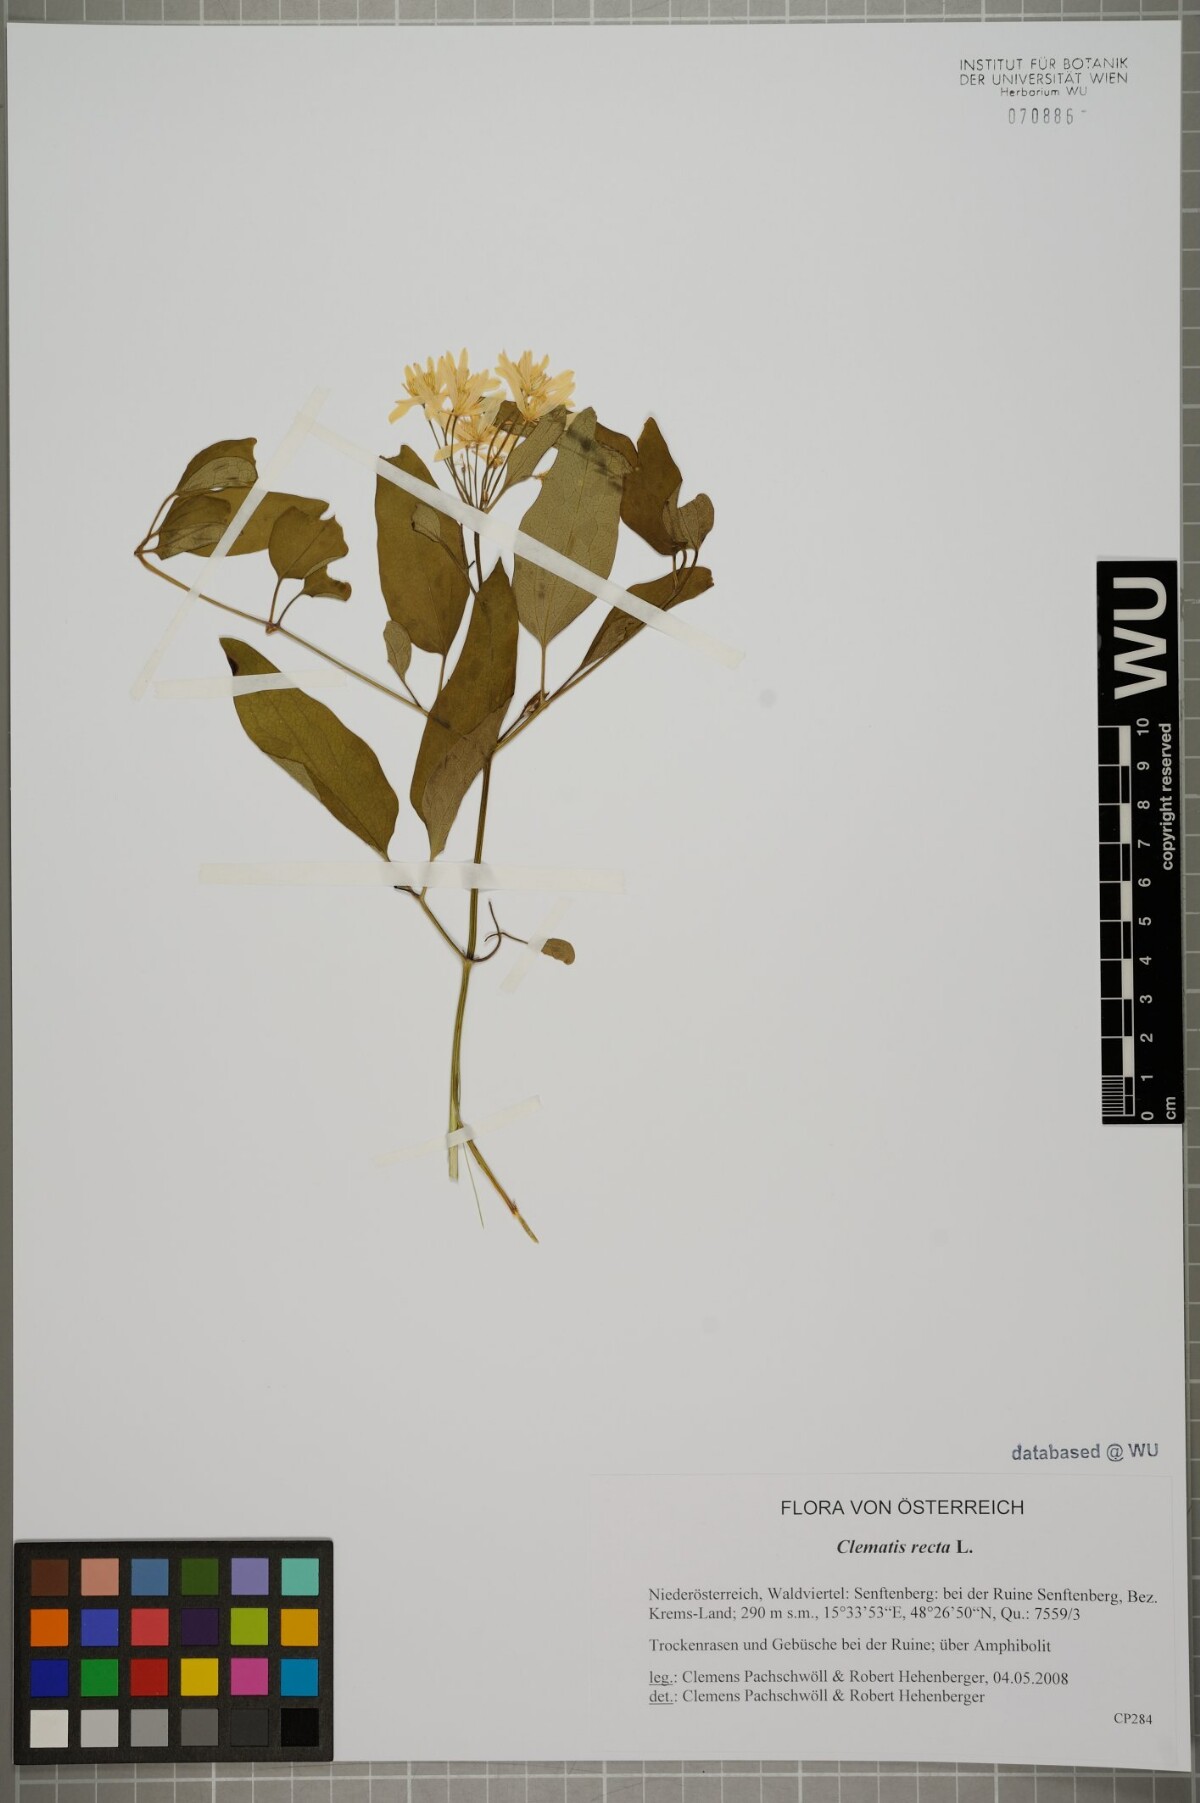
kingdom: Plantae
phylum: Tracheophyta
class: Magnoliopsida
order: Ranunculales
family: Ranunculaceae
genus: Clematis
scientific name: Clematis recta
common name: Ground clematis
